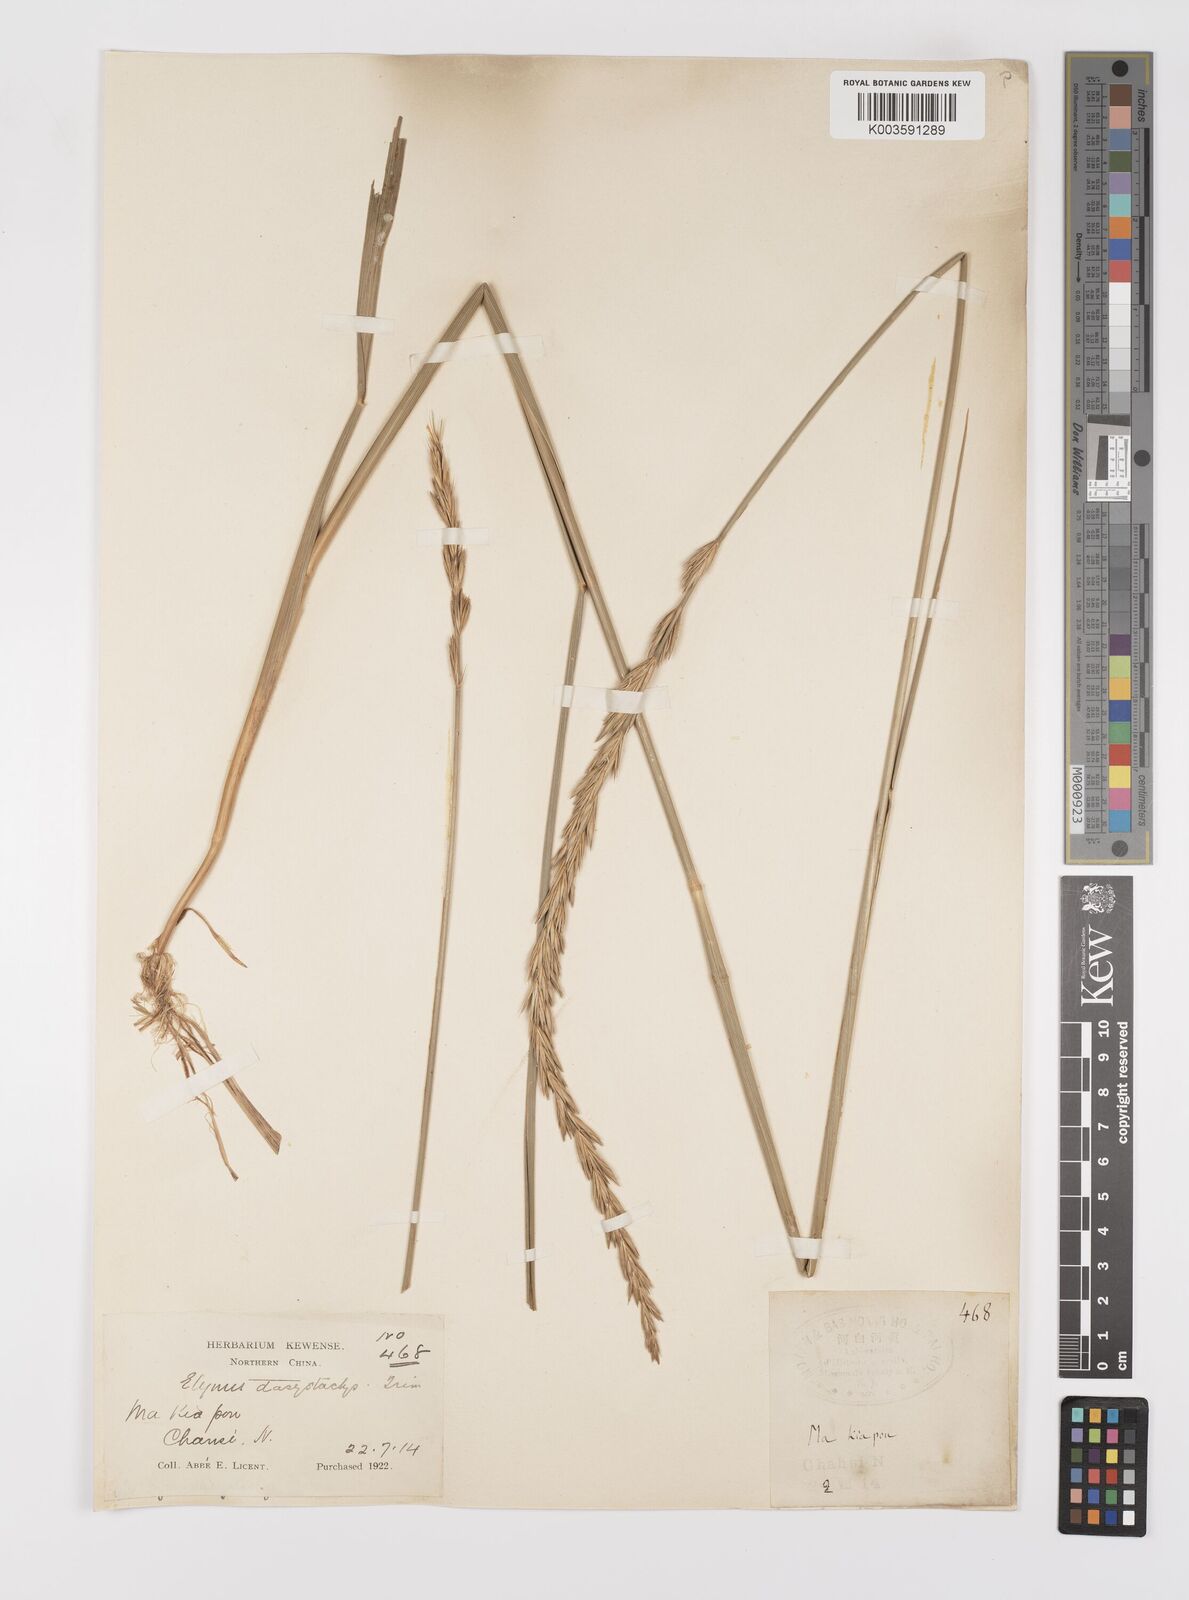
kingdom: Plantae
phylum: Tracheophyta
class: Liliopsida
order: Poales
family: Poaceae
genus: Leymus
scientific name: Leymus secalinus
